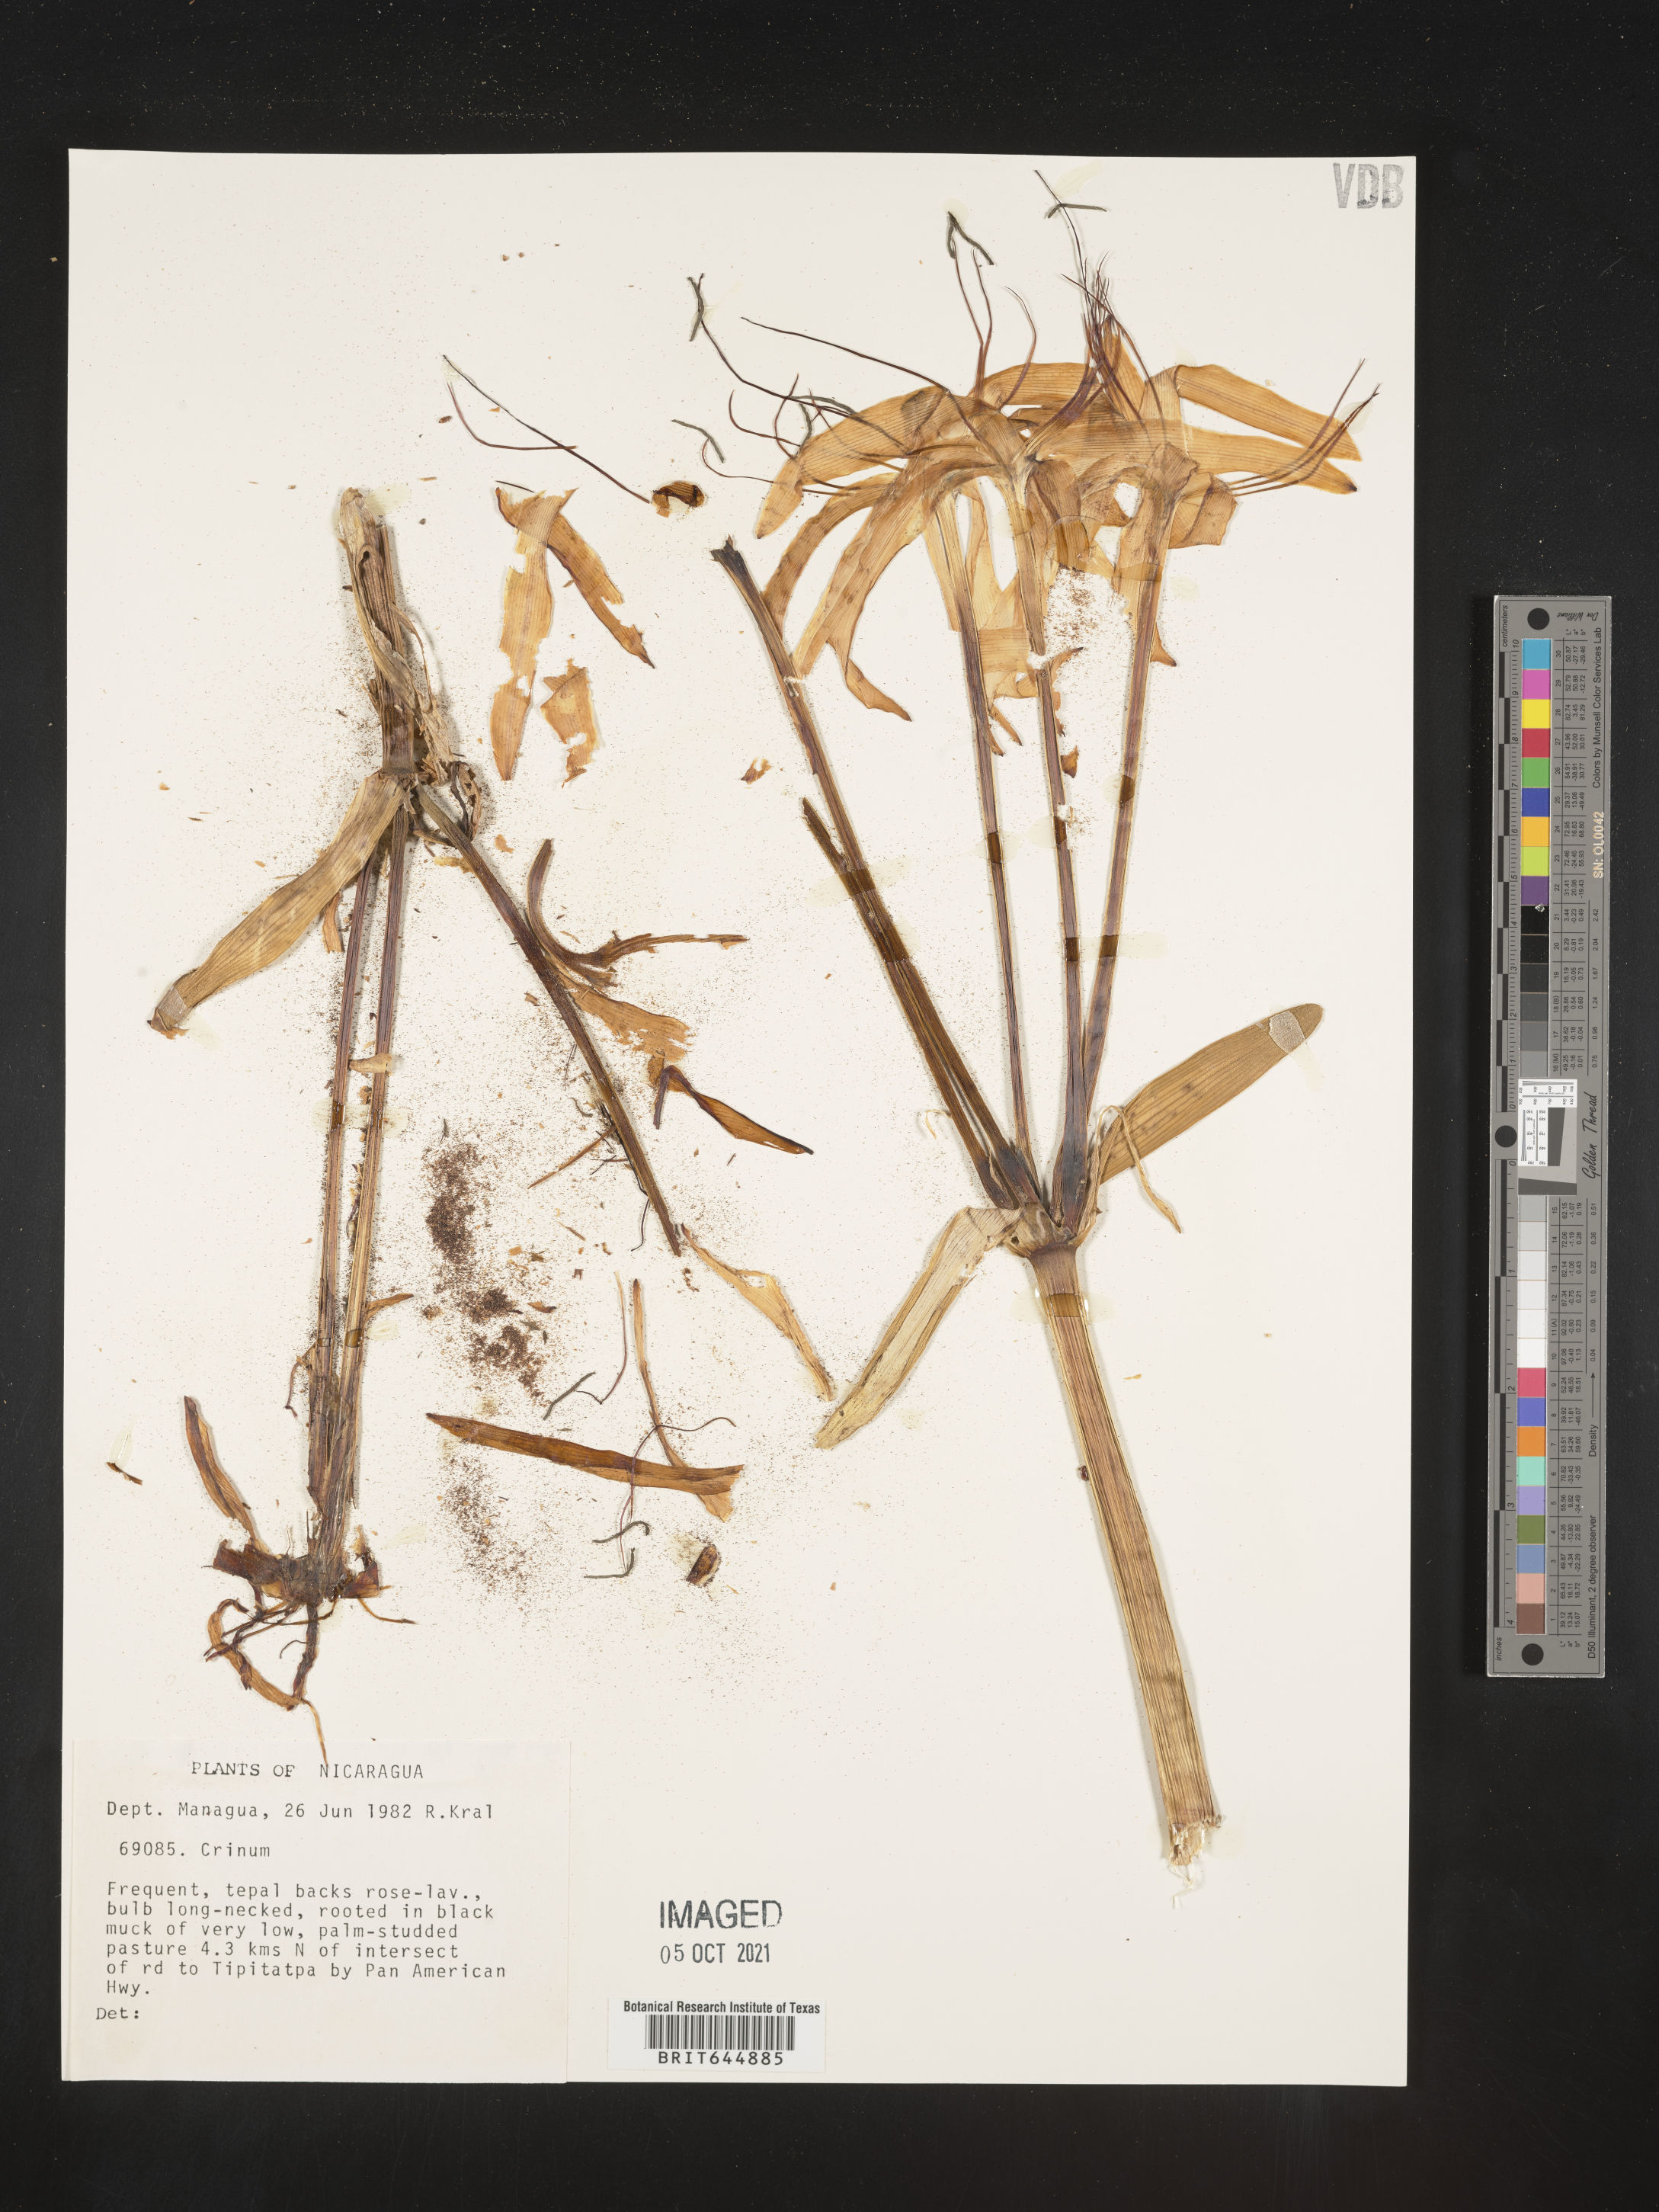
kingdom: Plantae
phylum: Tracheophyta
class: Liliopsida
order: Asparagales
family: Amaryllidaceae
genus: Crinum
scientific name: Crinum
